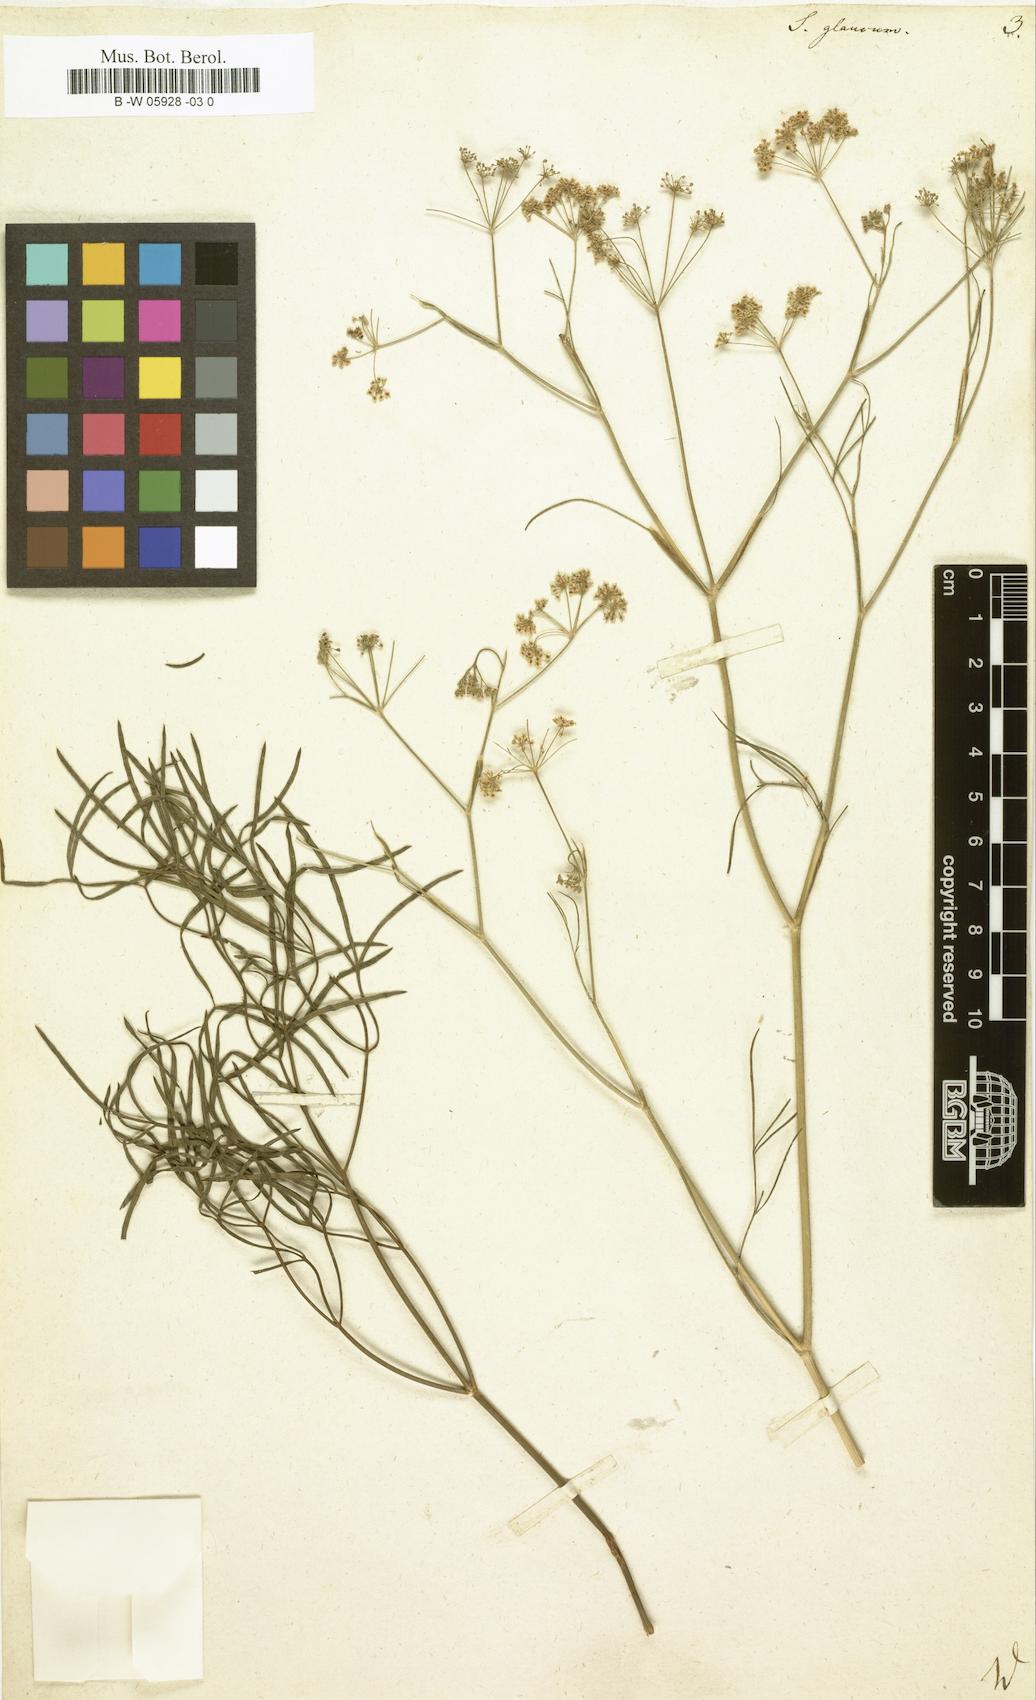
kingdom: Plantae
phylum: Tracheophyta
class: Magnoliopsida
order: Apiales
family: Apiaceae
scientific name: Apiaceae
